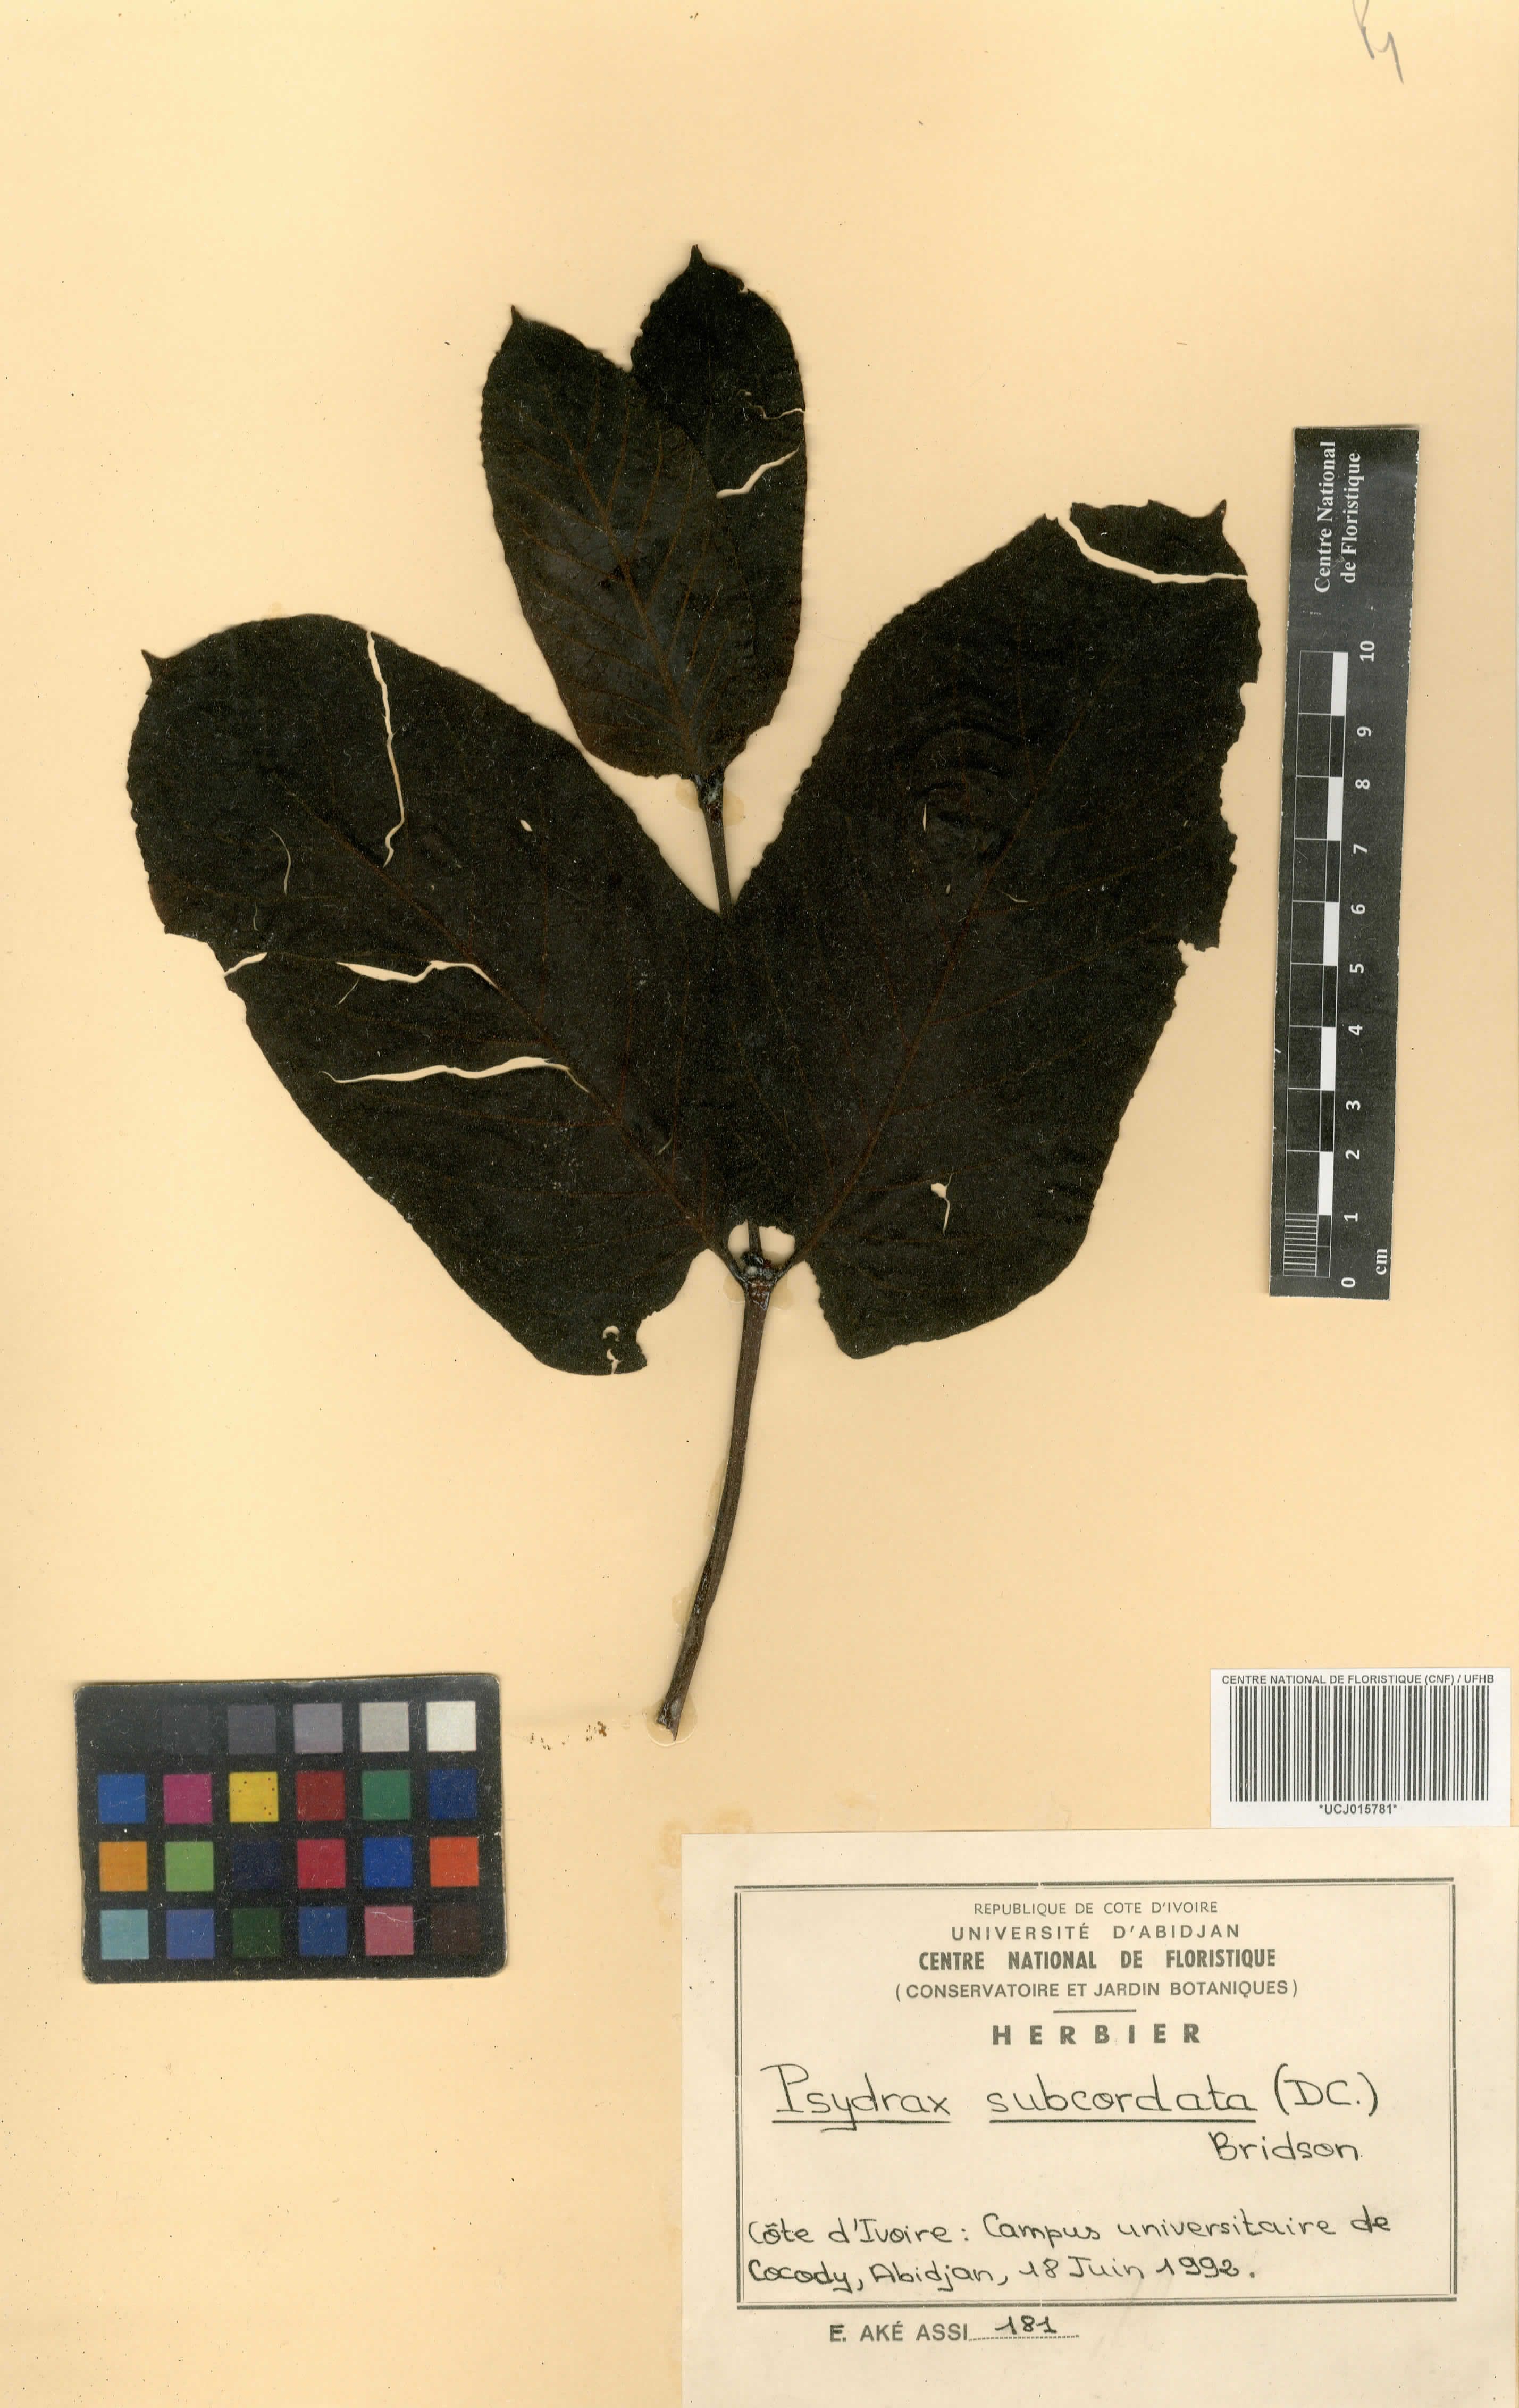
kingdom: Plantae
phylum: Tracheophyta
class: Magnoliopsida
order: Gentianales
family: Rubiaceae
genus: Psydrax
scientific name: Psydrax subcordatus
